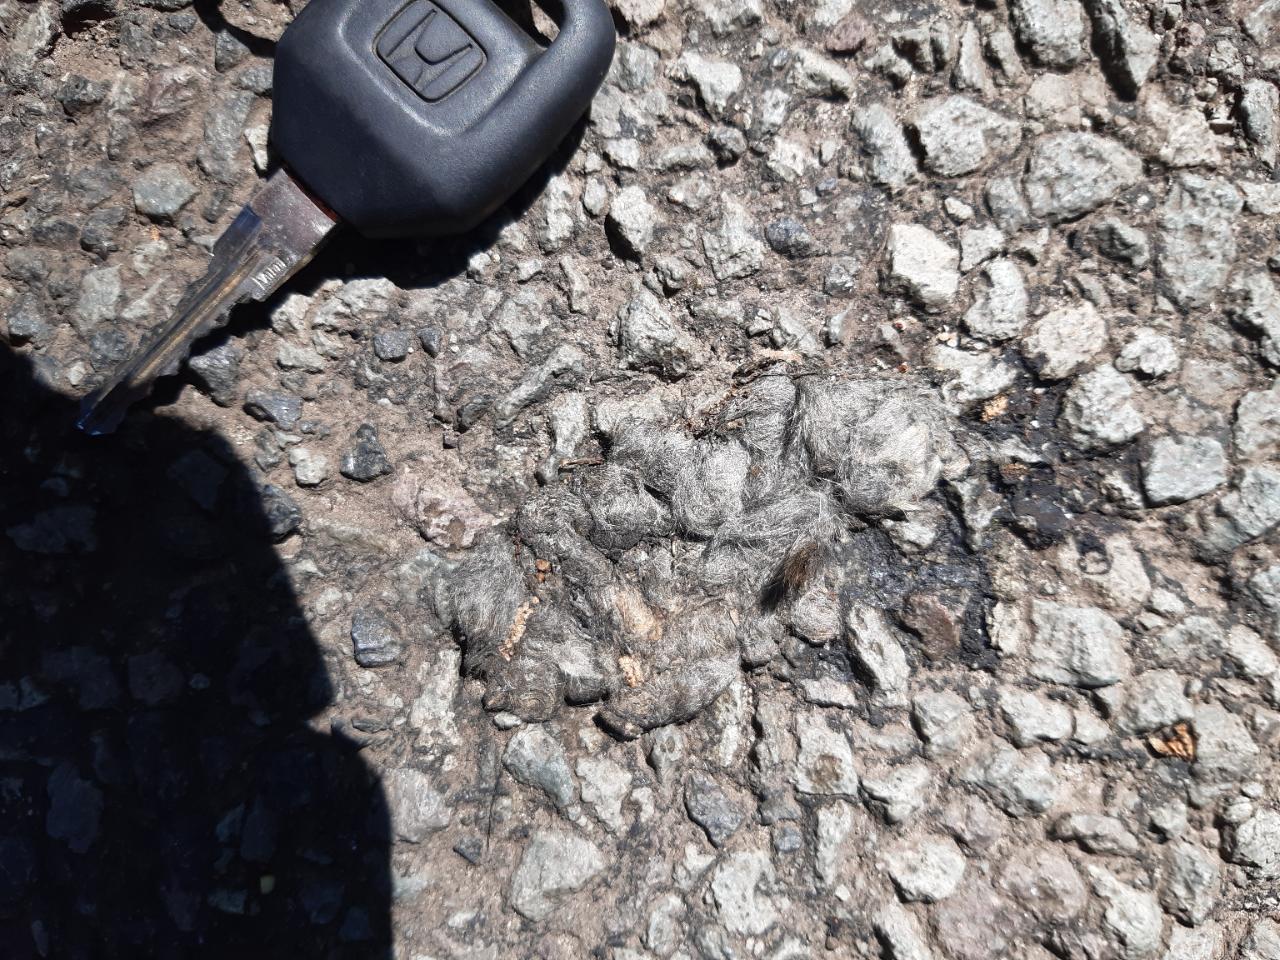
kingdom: Animalia
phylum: Chordata
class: Mammalia
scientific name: Mammalia
